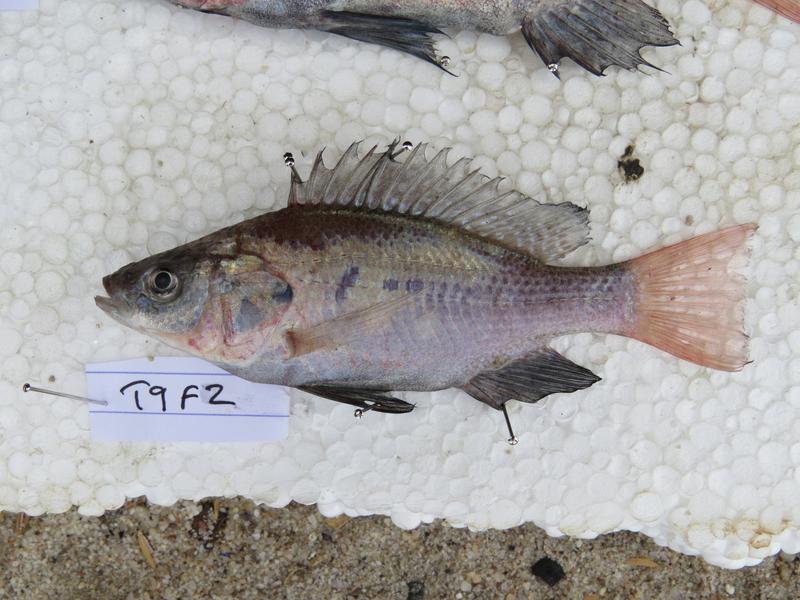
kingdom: Animalia
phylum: Chordata
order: Perciformes
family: Cichlidae
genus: Oreochromis
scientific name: Oreochromis amphimelas
